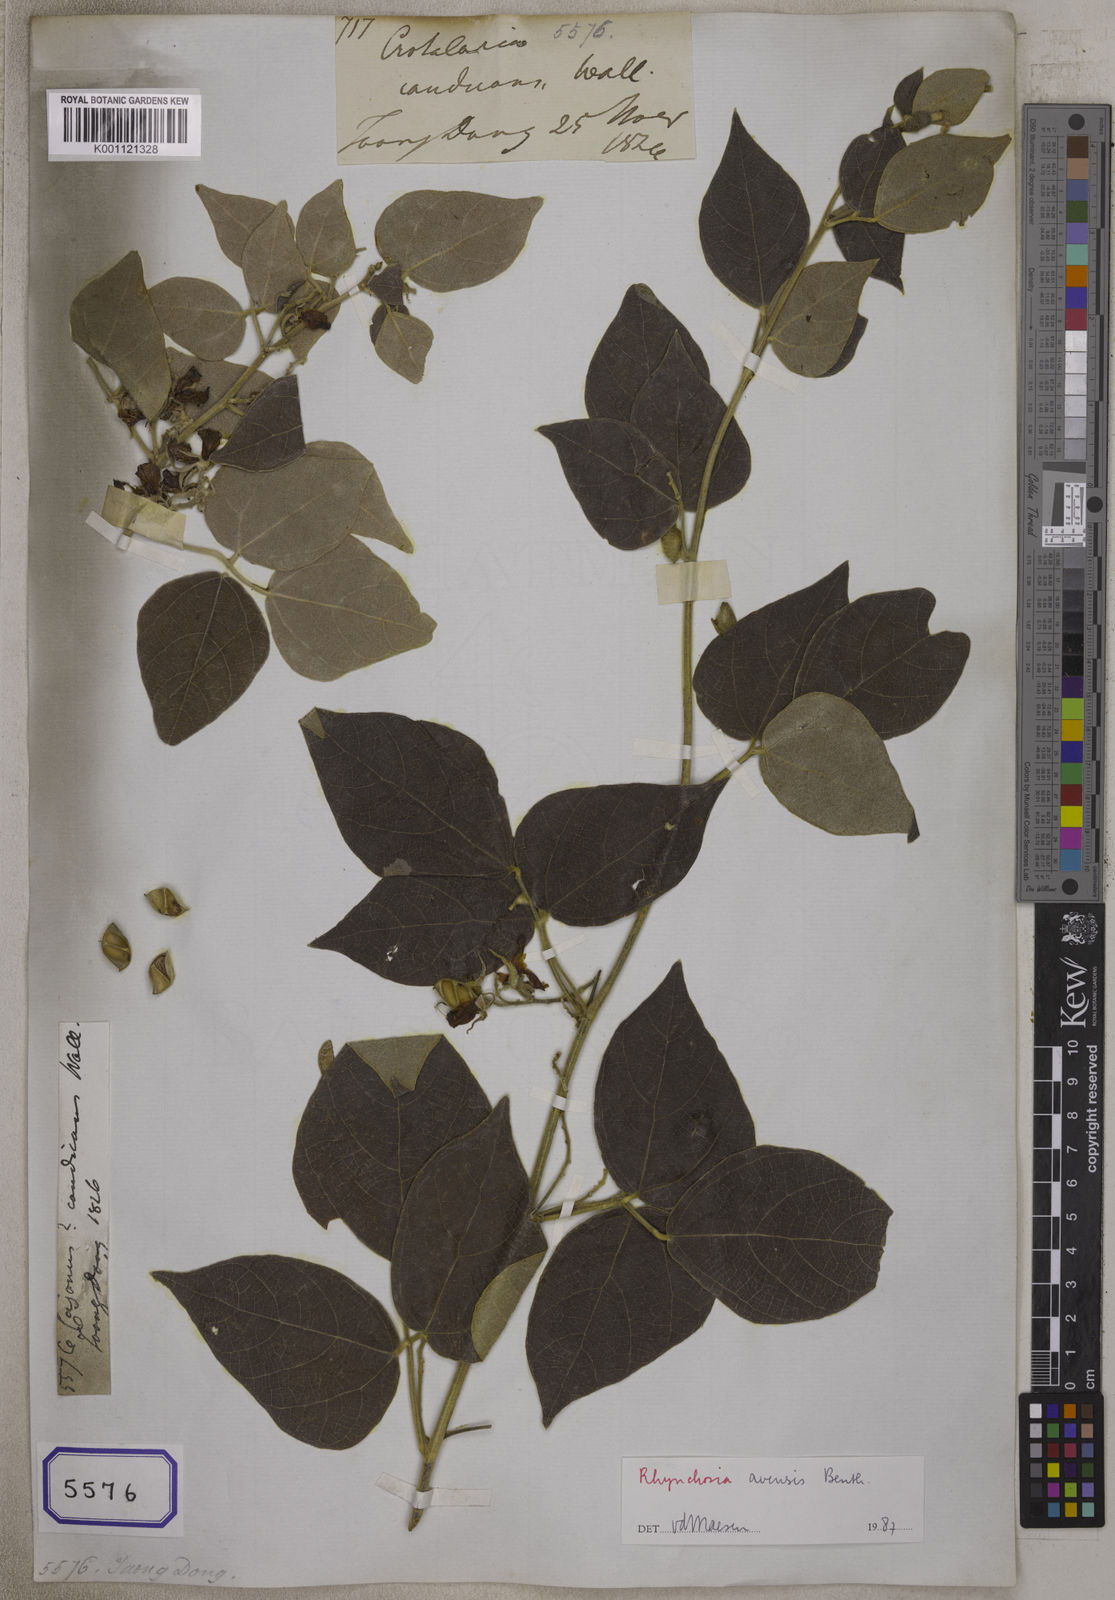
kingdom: Plantae
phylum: Tracheophyta
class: Magnoliopsida
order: Fabales
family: Fabaceae
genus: Rhynchosia
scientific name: Rhynchosia bracteata
